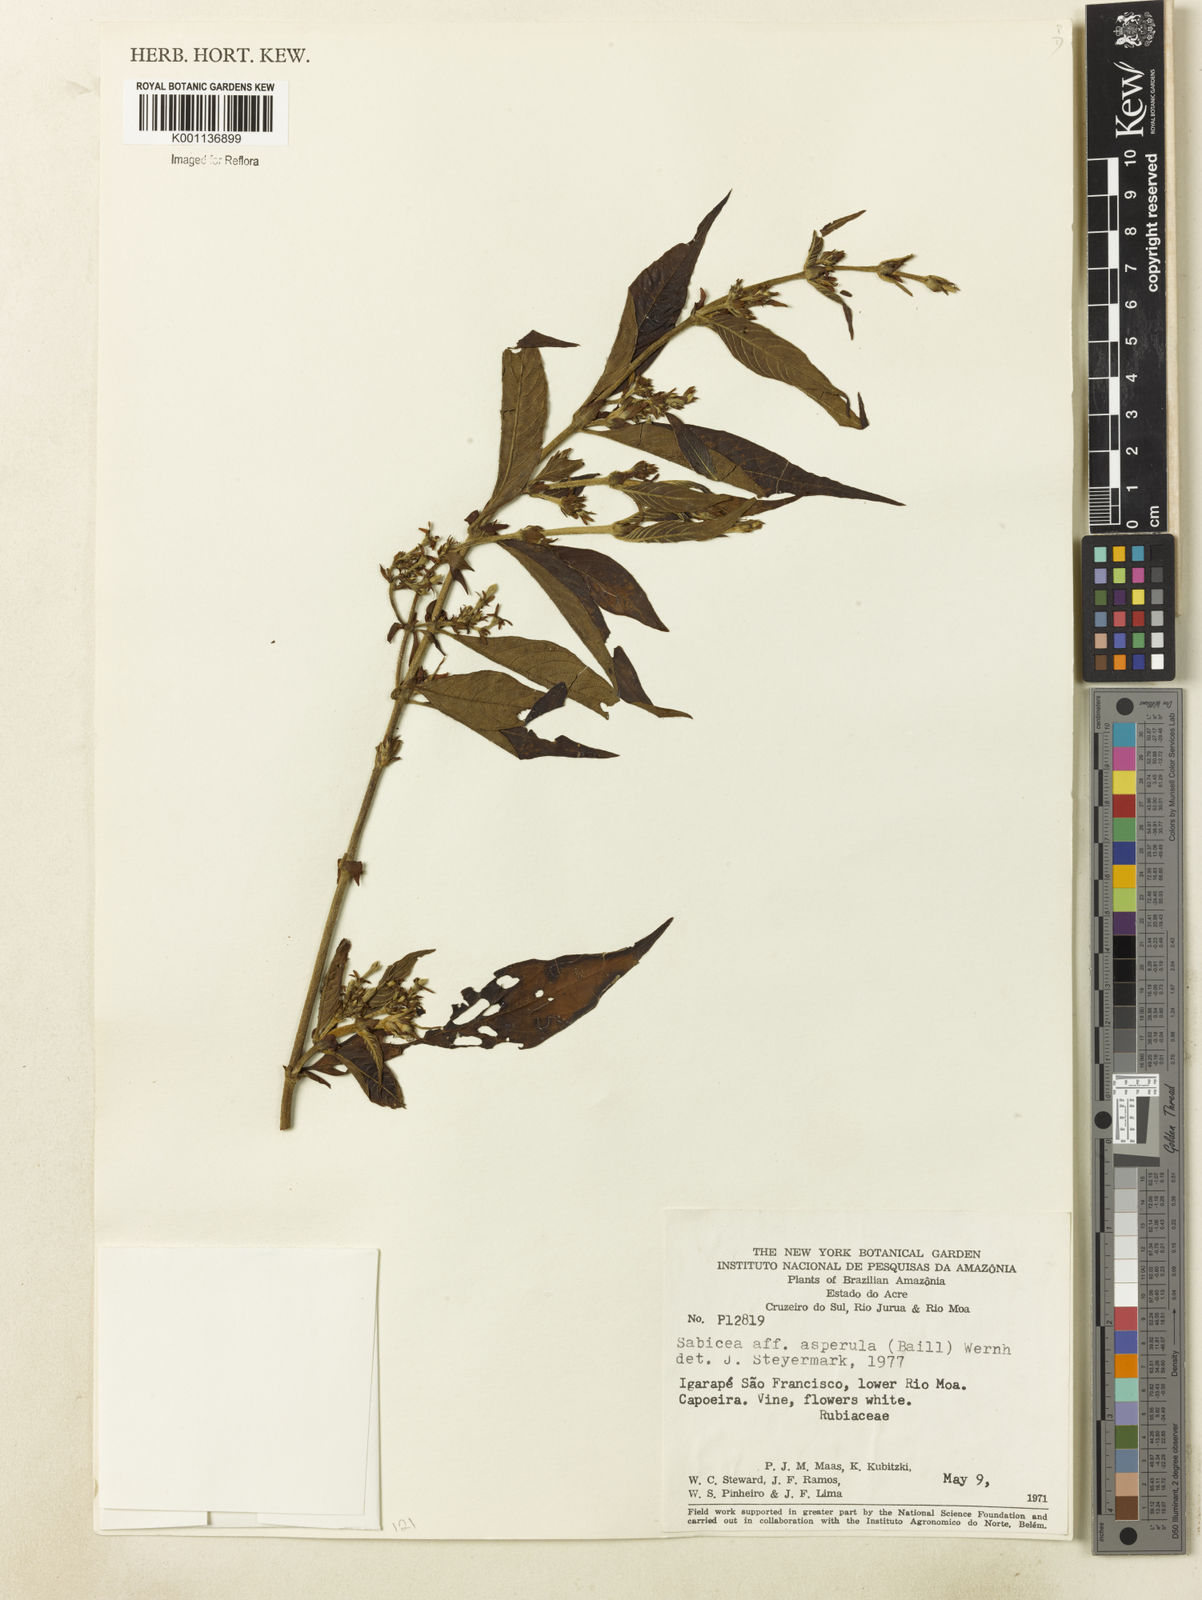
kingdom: Plantae
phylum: Tracheophyta
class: Magnoliopsida
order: Gentianales
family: Rubiaceae
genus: Sabicea
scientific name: Sabicea asperula
